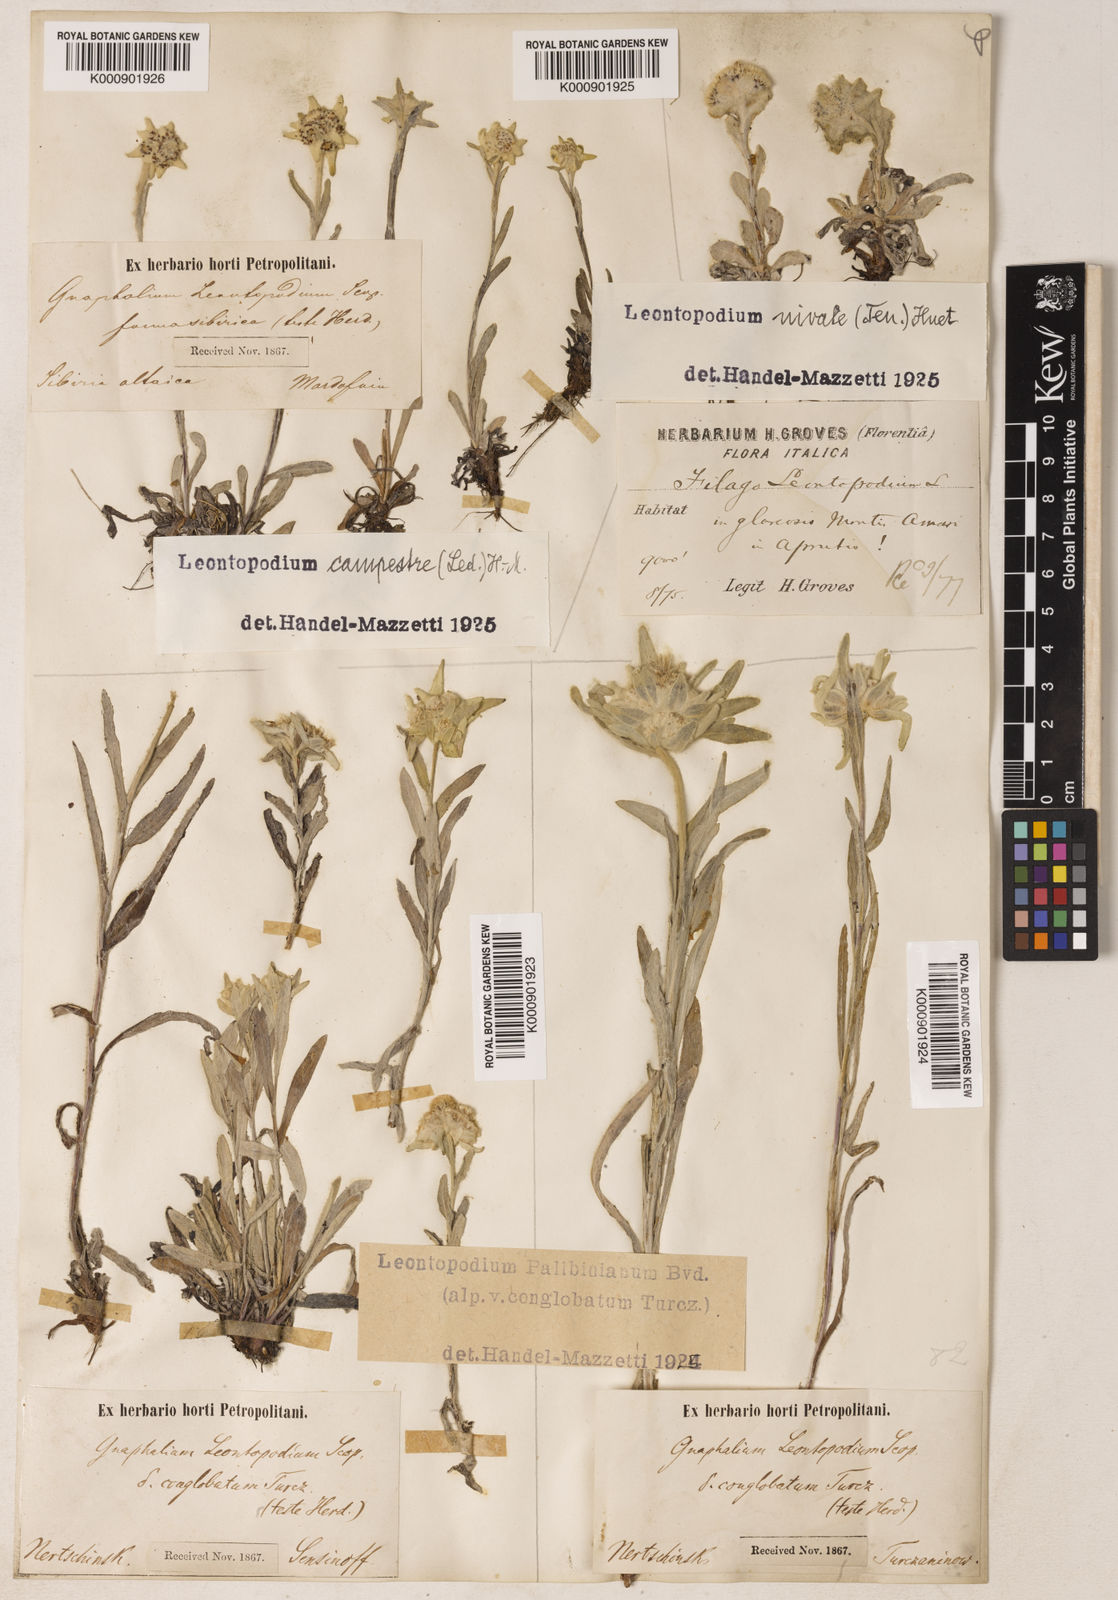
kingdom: Plantae
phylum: Tracheophyta
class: Magnoliopsida
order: Asterales
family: Asteraceae
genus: Leontopodium
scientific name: Leontopodium nivale
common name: Edelweiss
